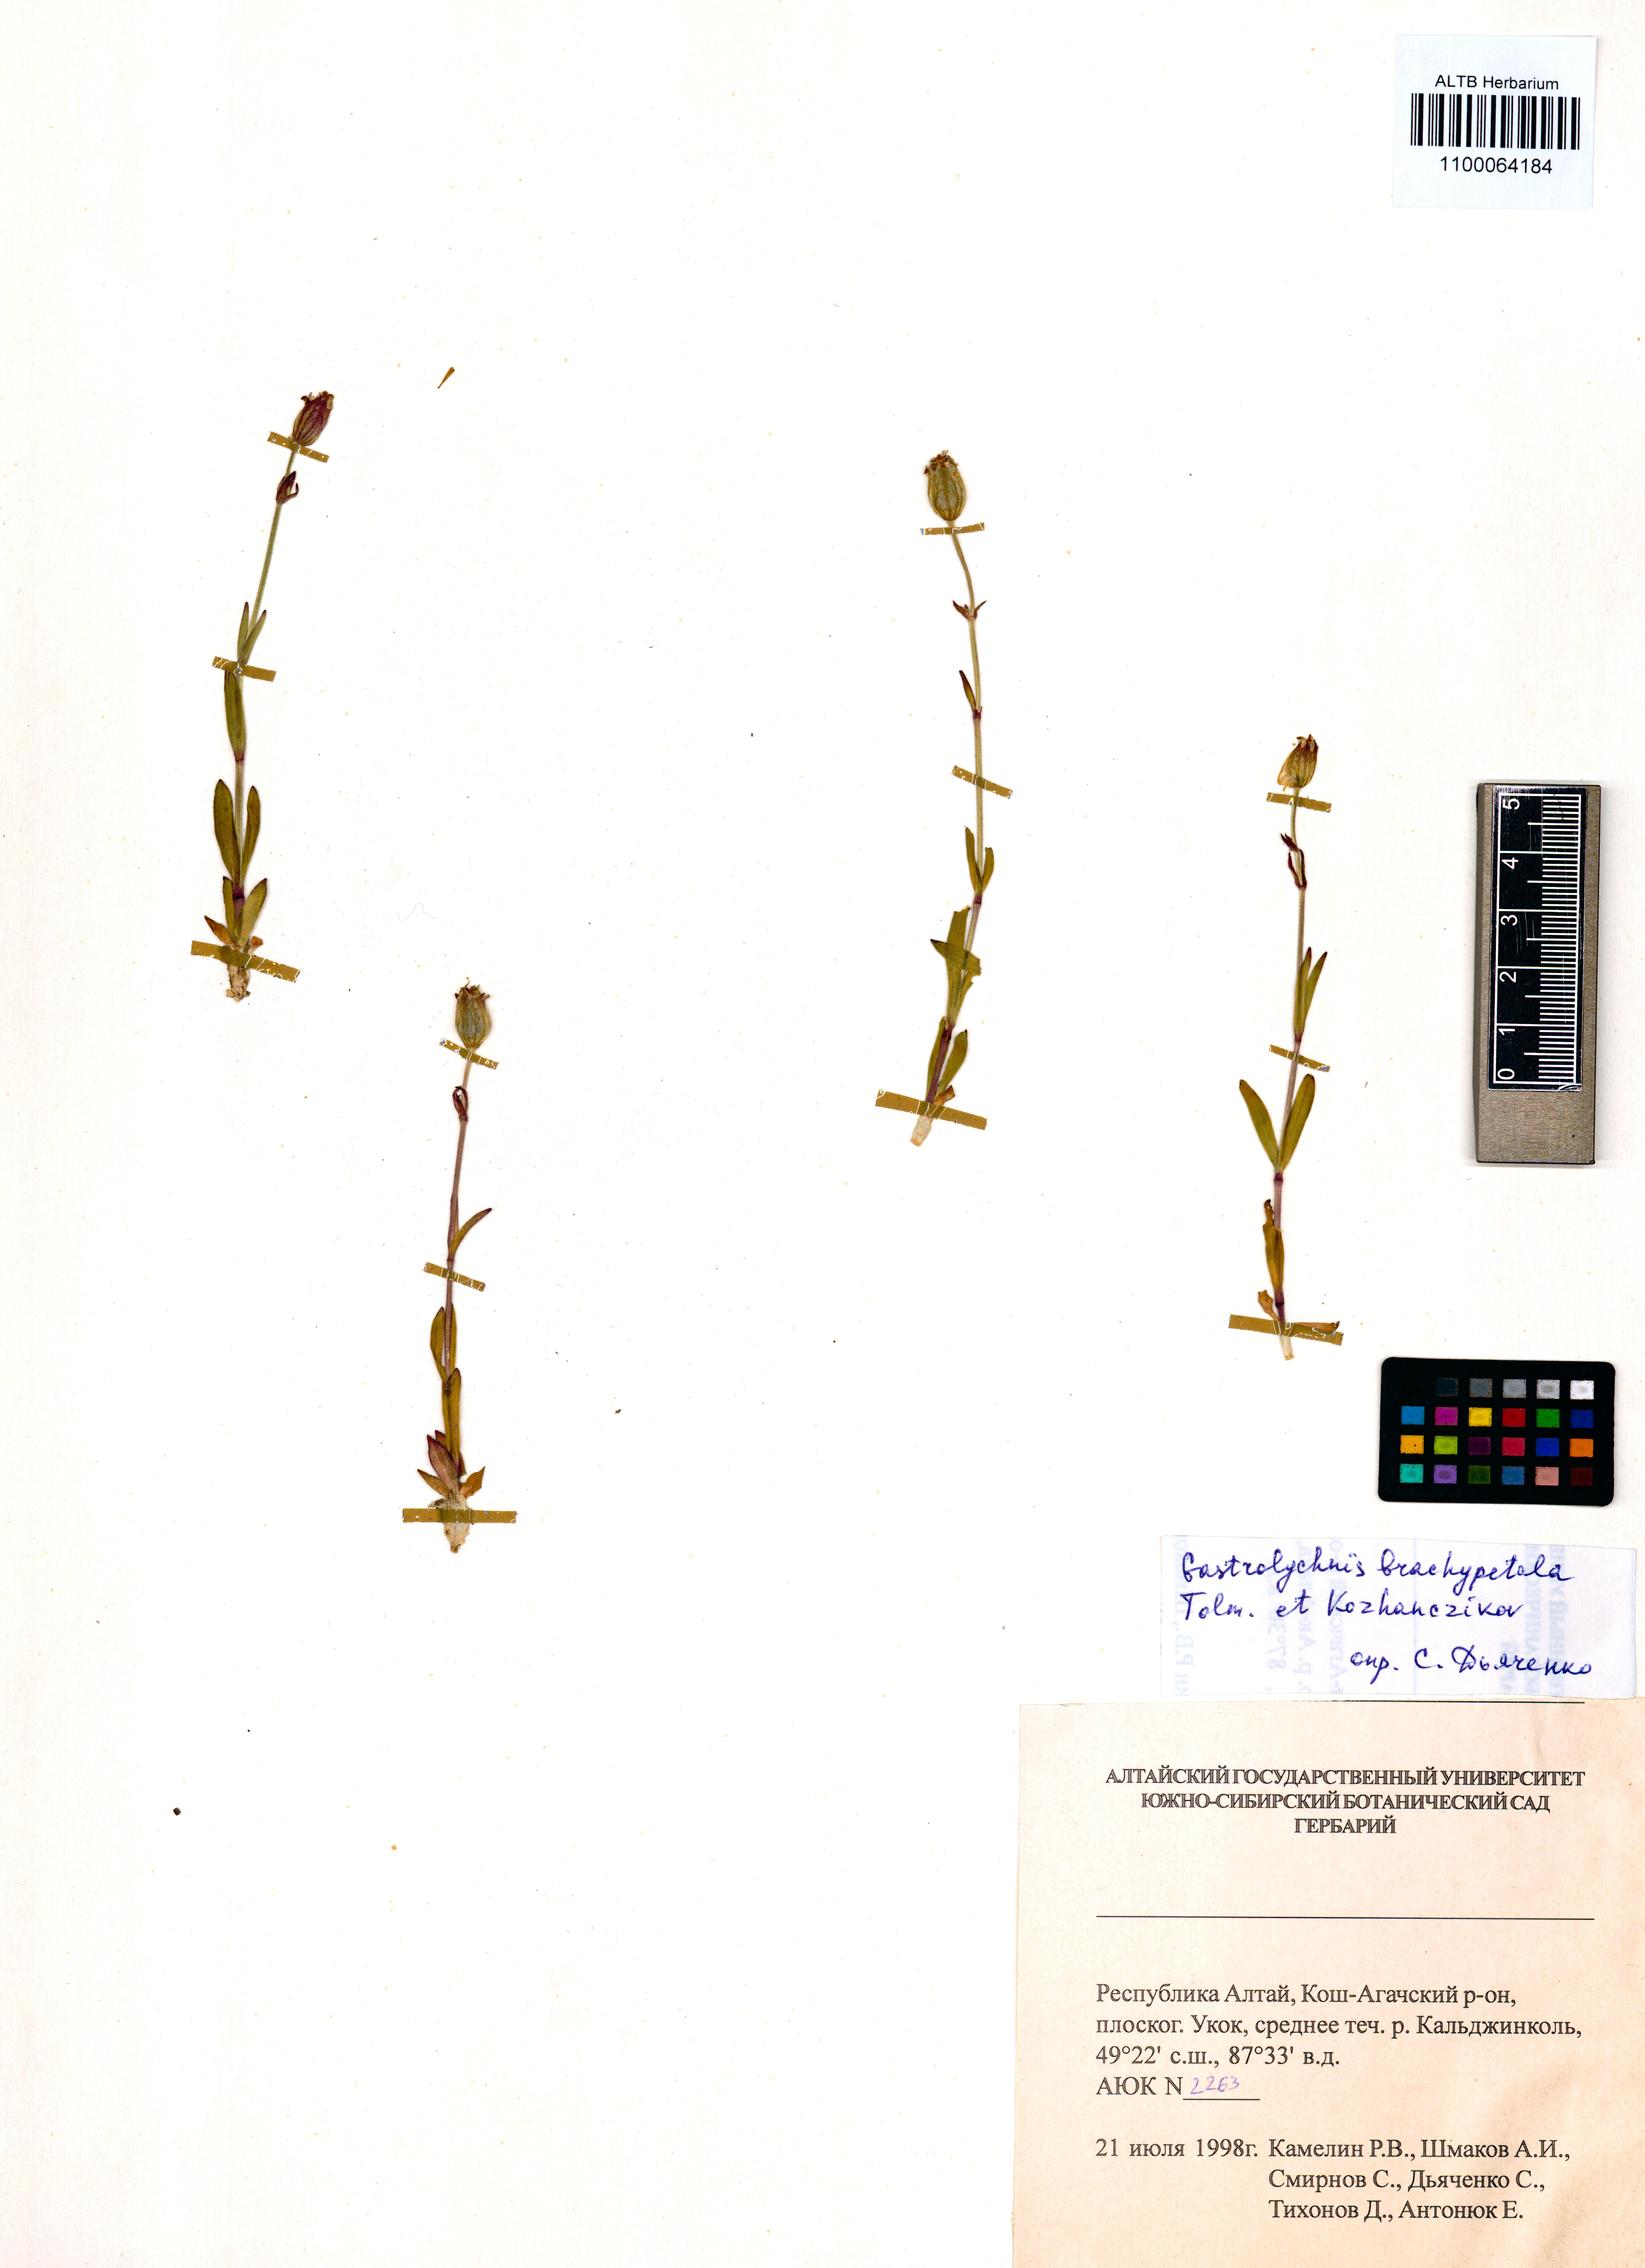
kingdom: Plantae
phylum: Tracheophyta
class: Magnoliopsida
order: Caryophyllales
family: Caryophyllaceae
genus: Silene
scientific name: Silene songarica
